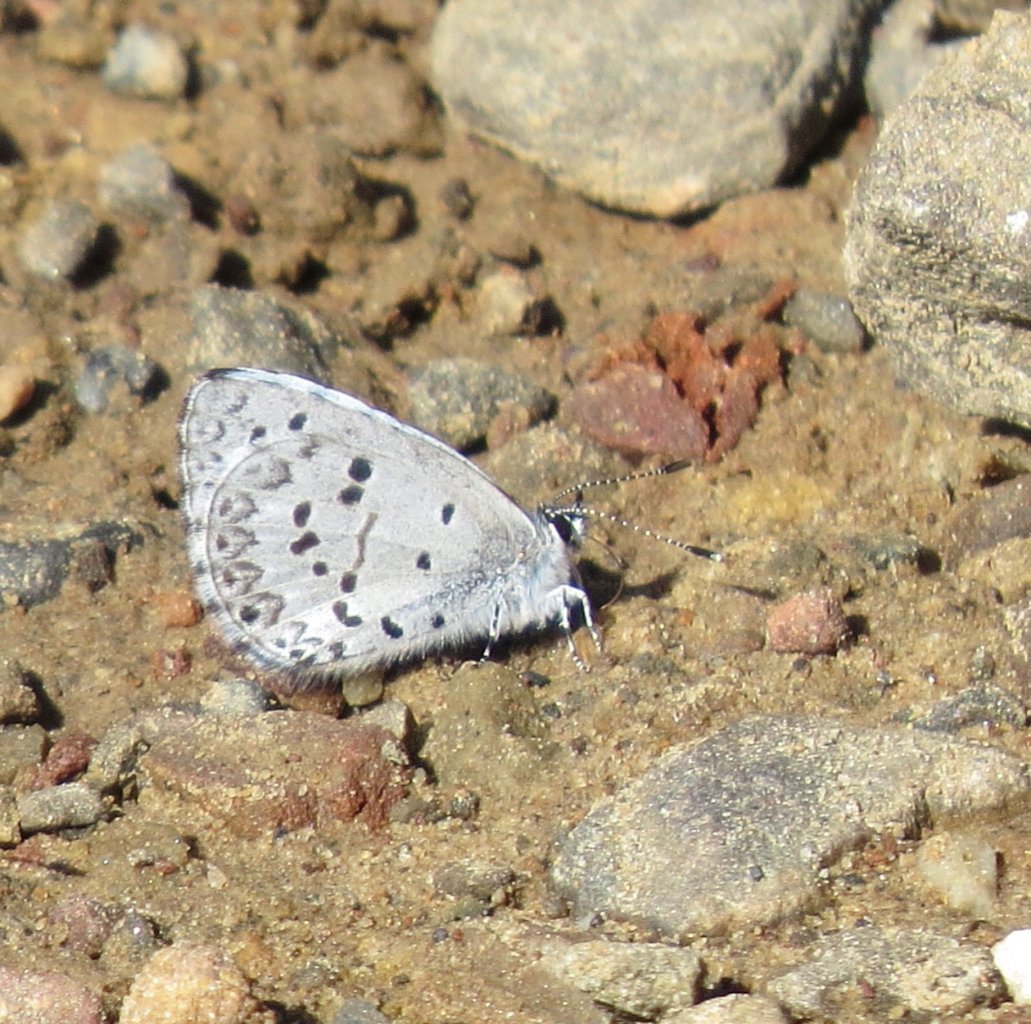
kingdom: Animalia
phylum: Arthropoda
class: Insecta
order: Lepidoptera
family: Lycaenidae
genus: Celastrina
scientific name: Celastrina ladon
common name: Spring Azure
